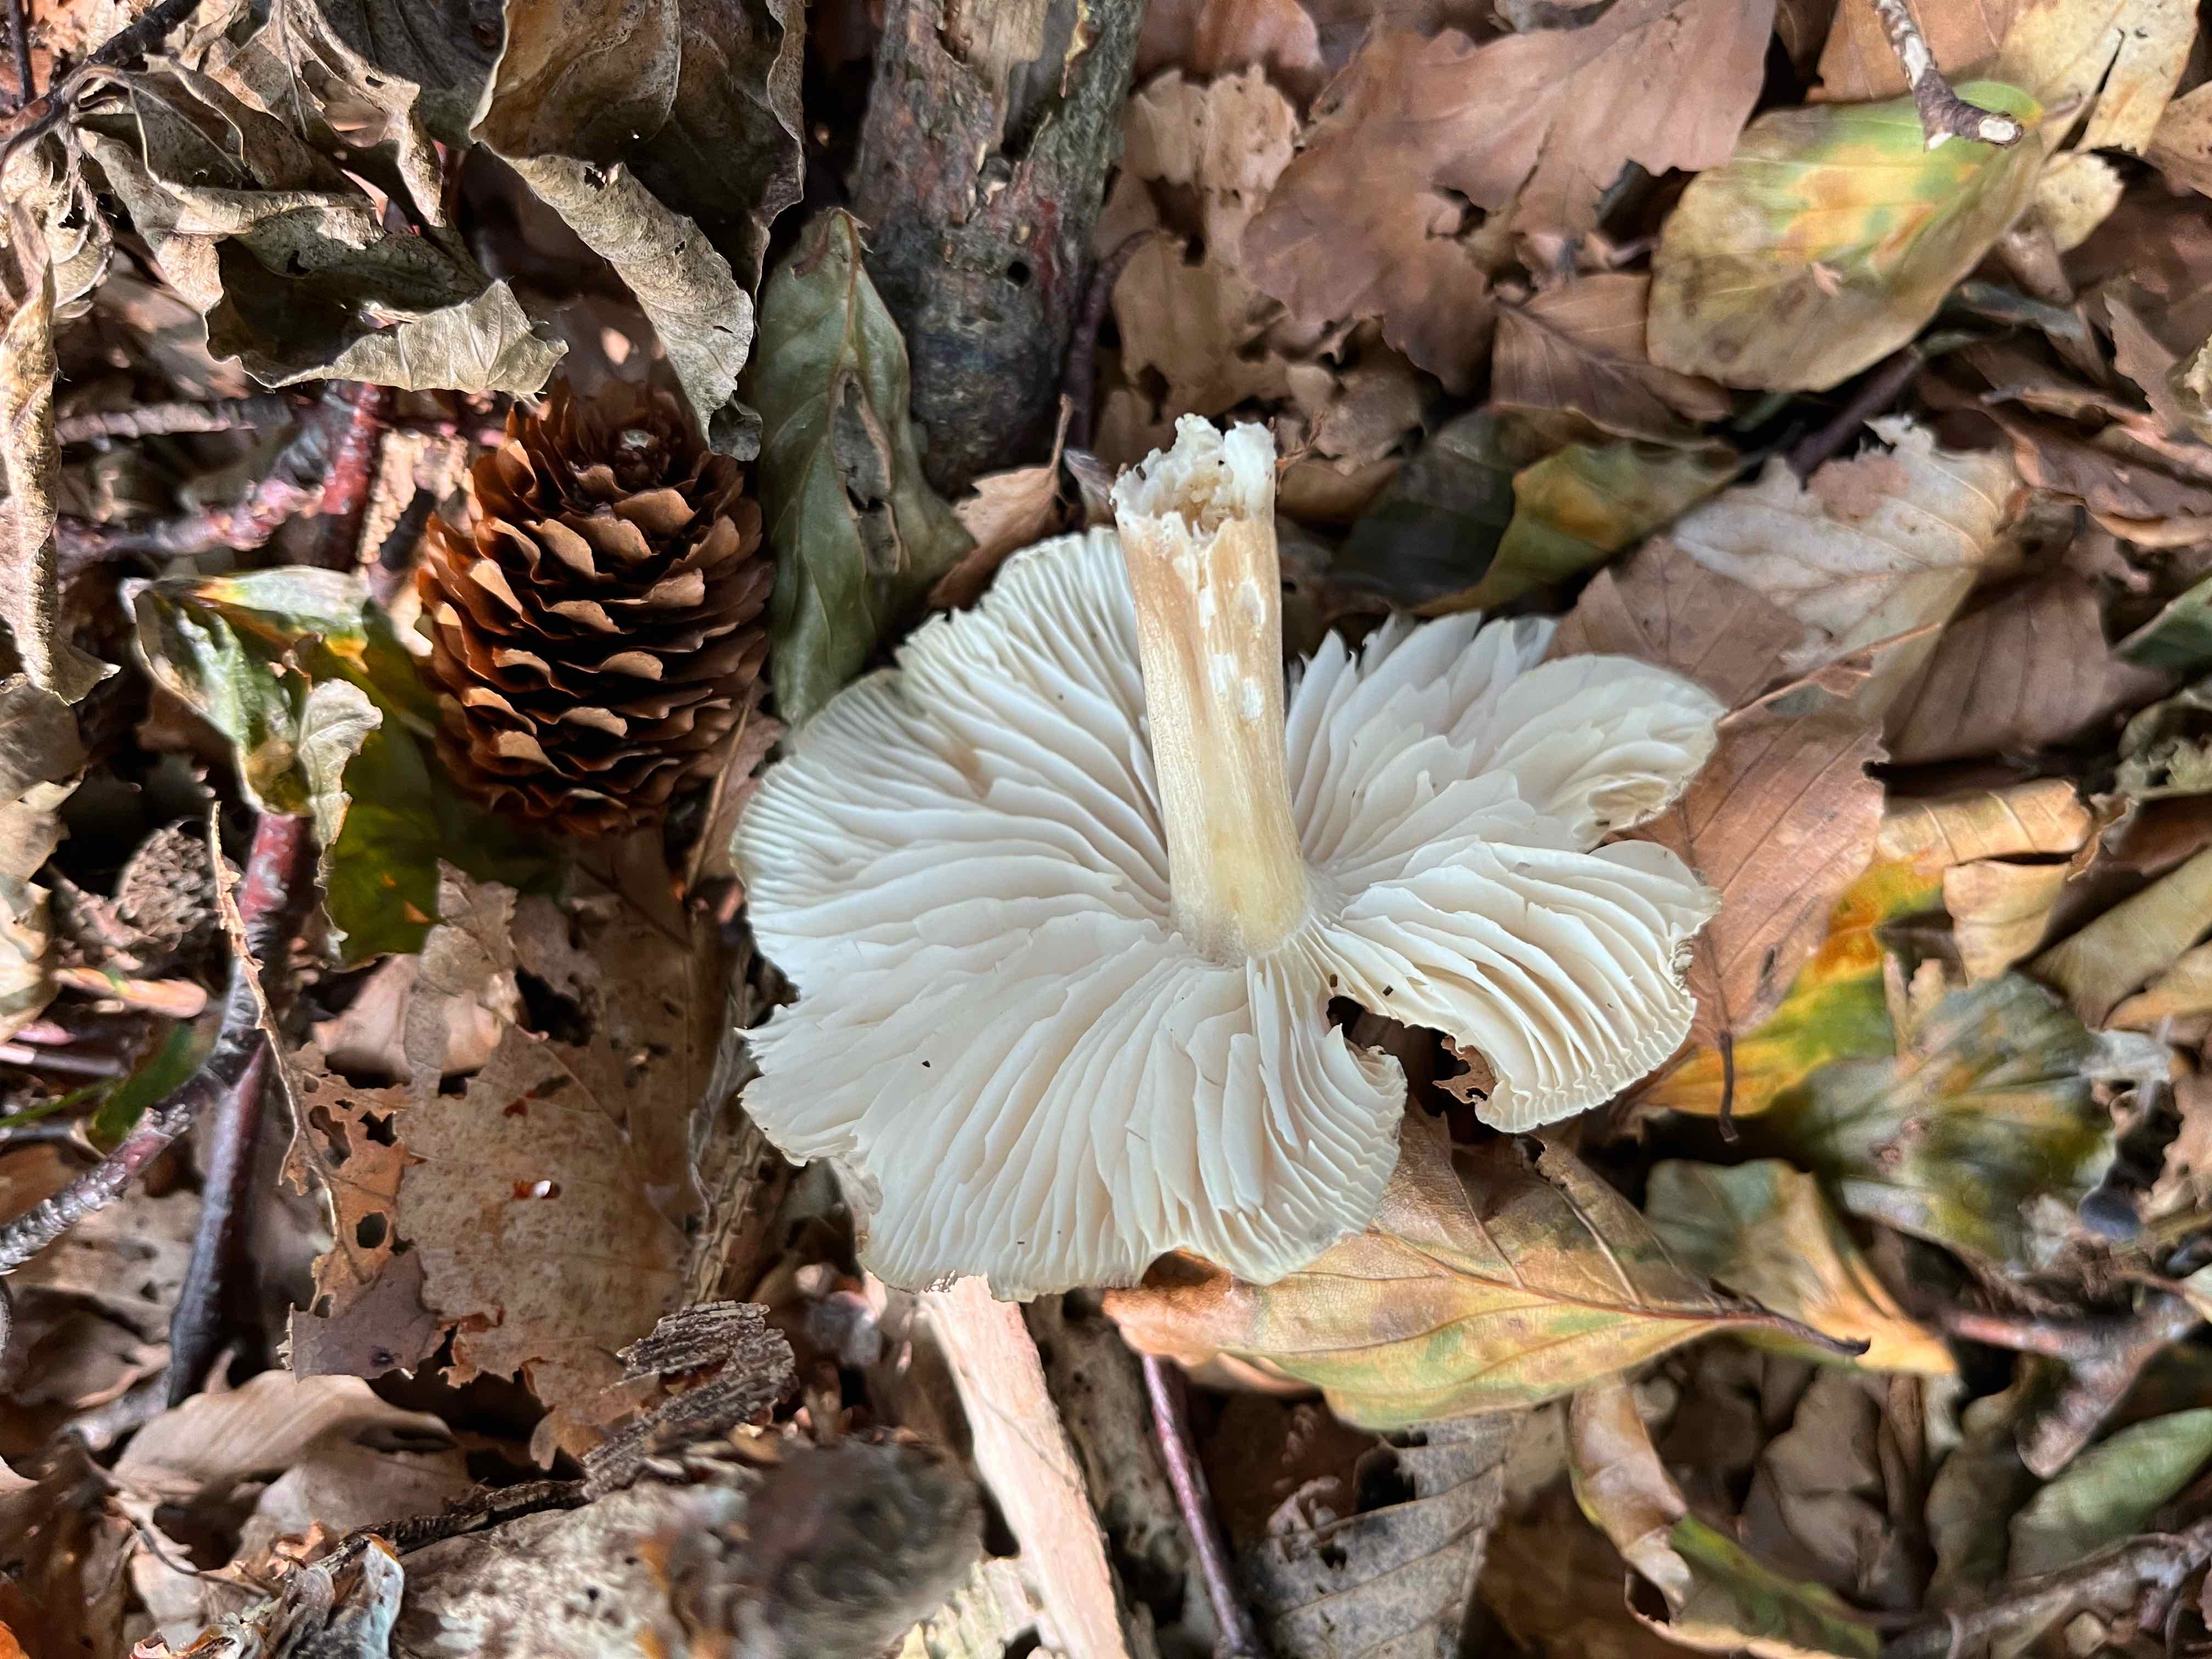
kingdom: Fungi
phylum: Basidiomycota
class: Agaricomycetes
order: Agaricales
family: Tricholomataceae
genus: Megacollybia
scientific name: Megacollybia platyphylla
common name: bredbladet væbnerhat
